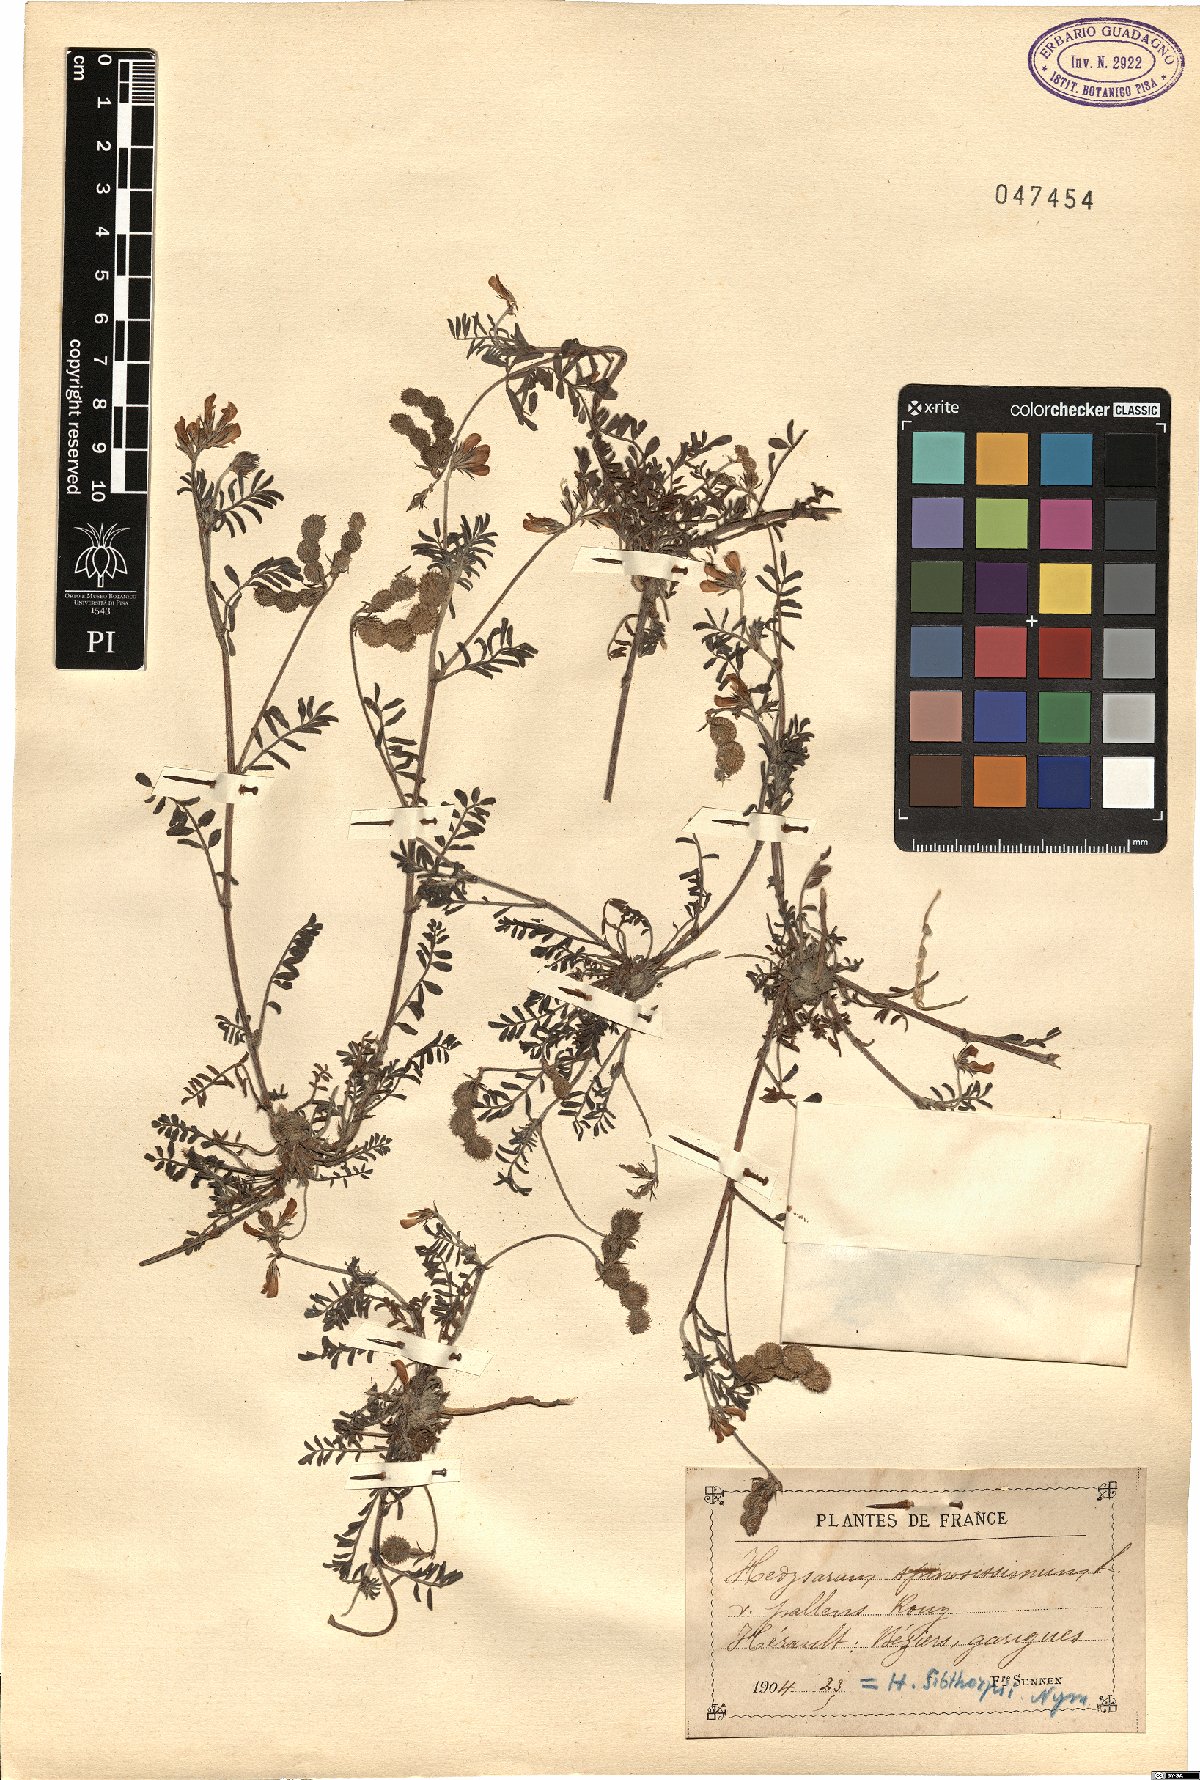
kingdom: Plantae
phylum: Tracheophyta
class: Magnoliopsida
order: Fabales
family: Fabaceae
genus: Sulla
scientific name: Sulla spinosissima
